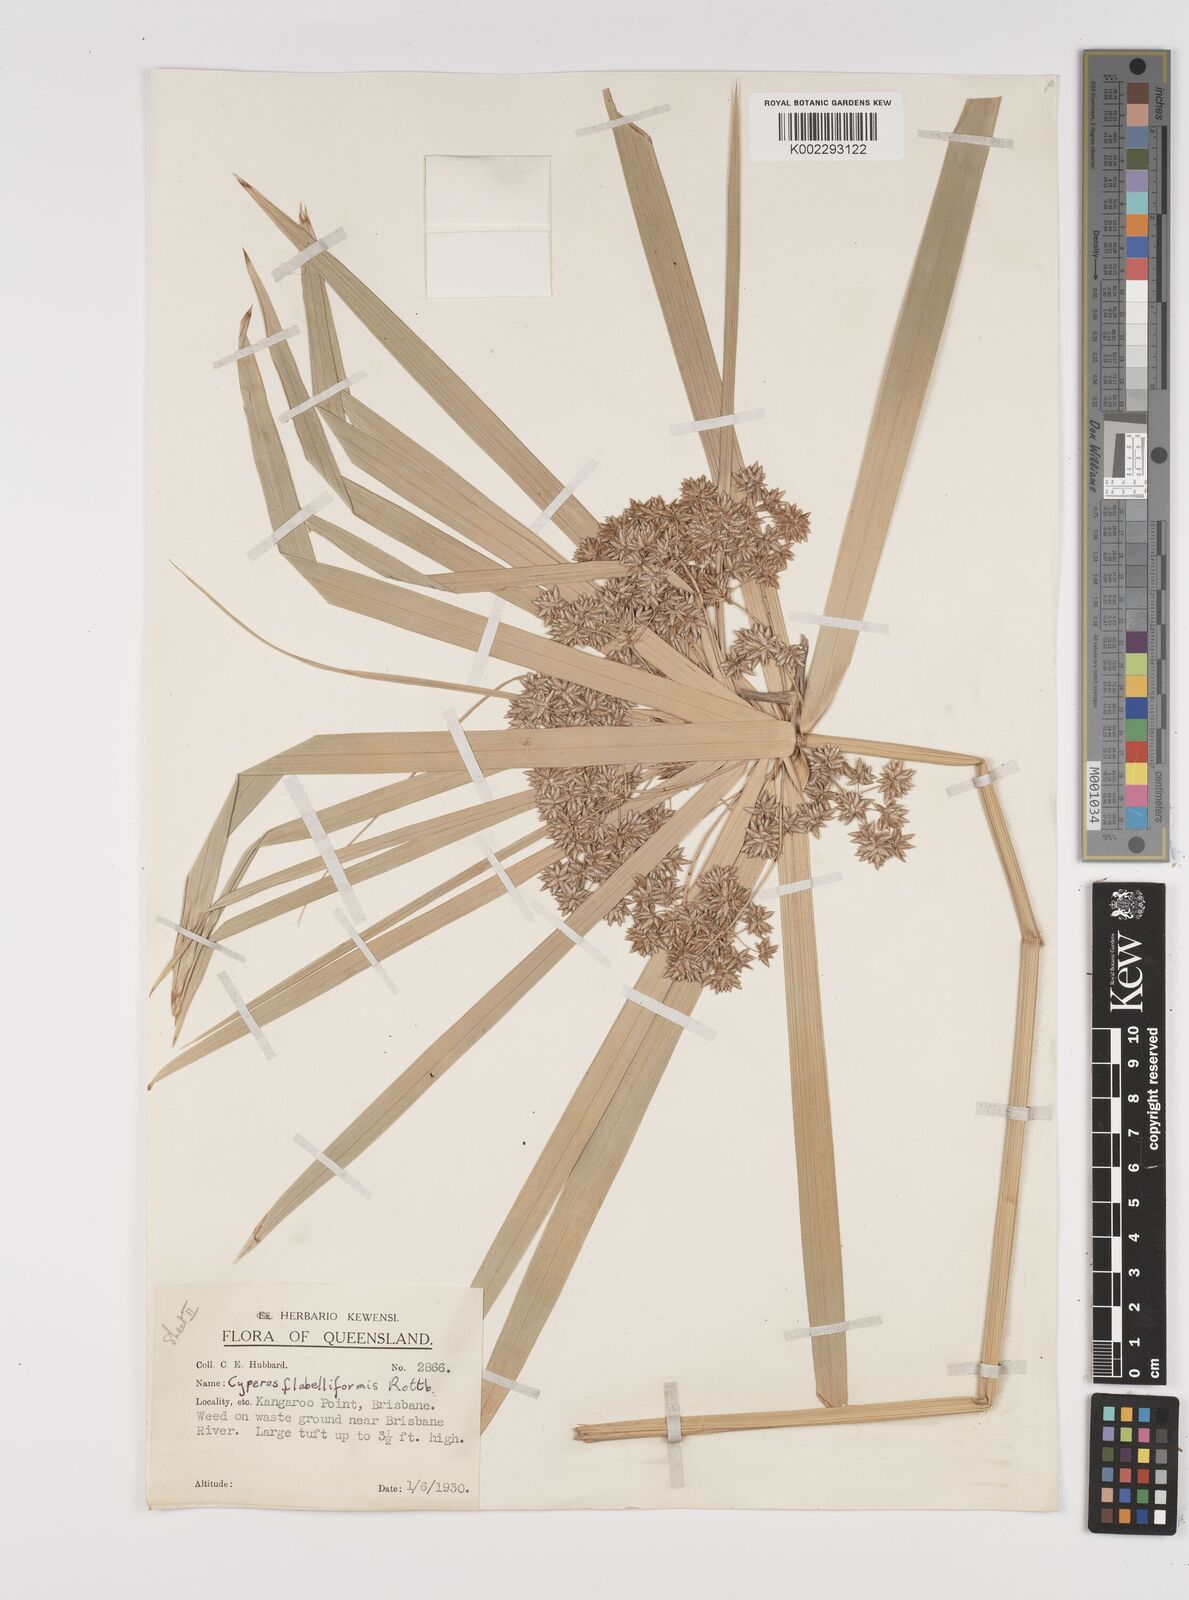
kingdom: Plantae
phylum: Tracheophyta
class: Liliopsida
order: Poales
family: Cyperaceae
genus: Cyperus
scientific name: Cyperus alternifolius
